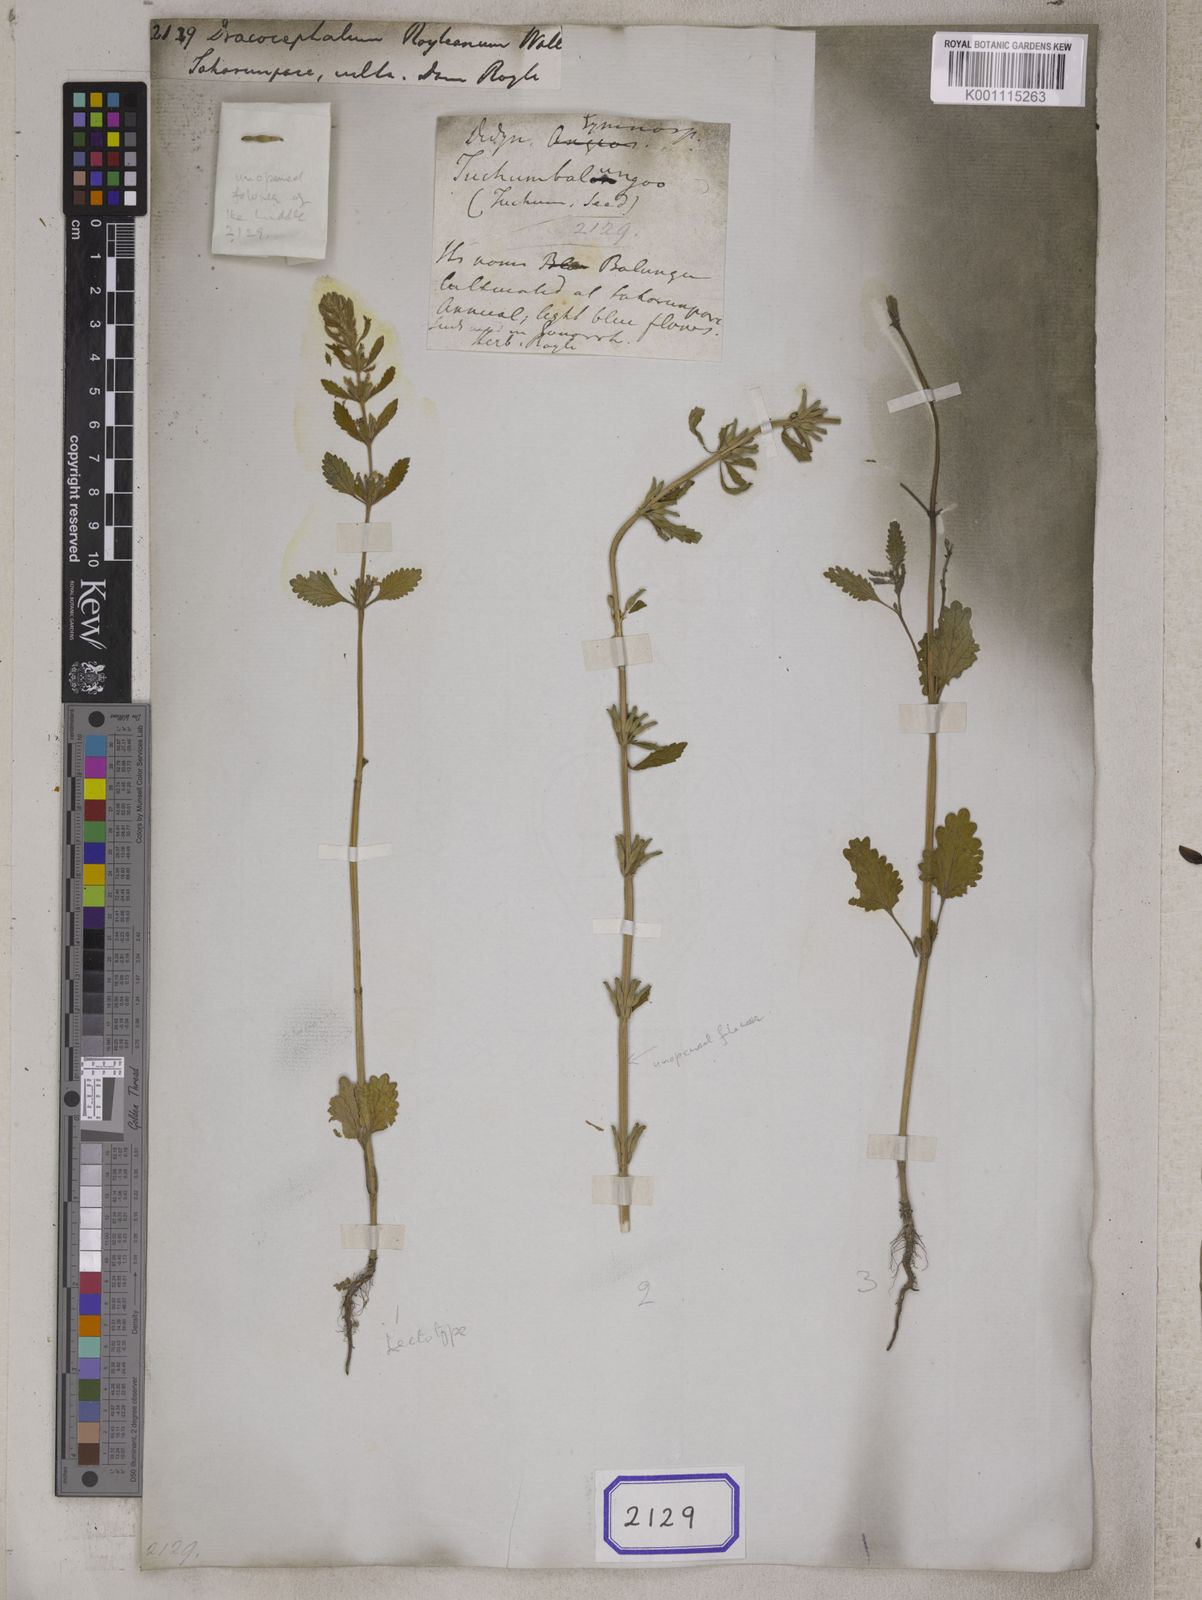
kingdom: Plantae
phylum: Tracheophyta
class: Magnoliopsida
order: Lamiales
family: Lamiaceae
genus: Lallemantia
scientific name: Lallemantia royleana
